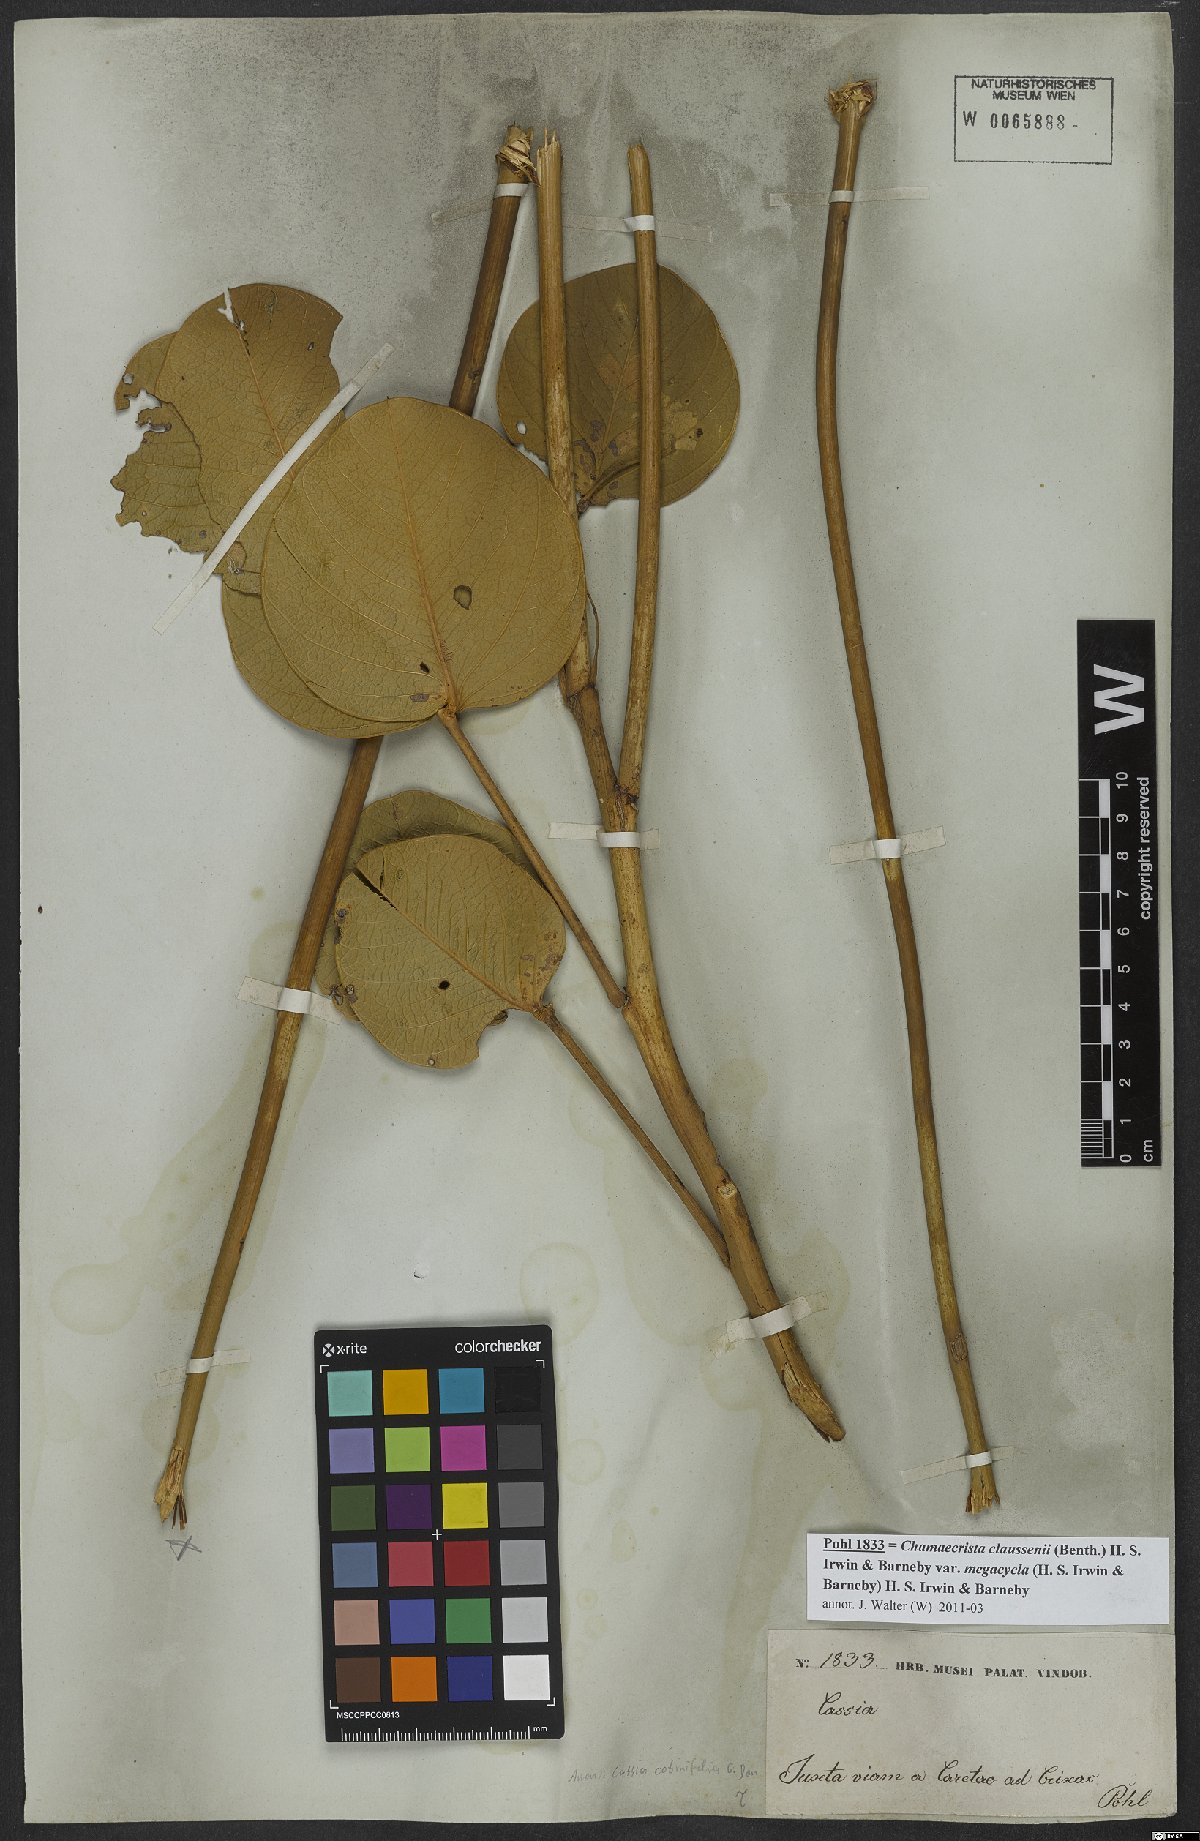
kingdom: Plantae
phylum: Tracheophyta
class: Magnoliopsida
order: Fabales
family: Fabaceae
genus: Chamaecrista
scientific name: Chamaecrista cotinifolia
